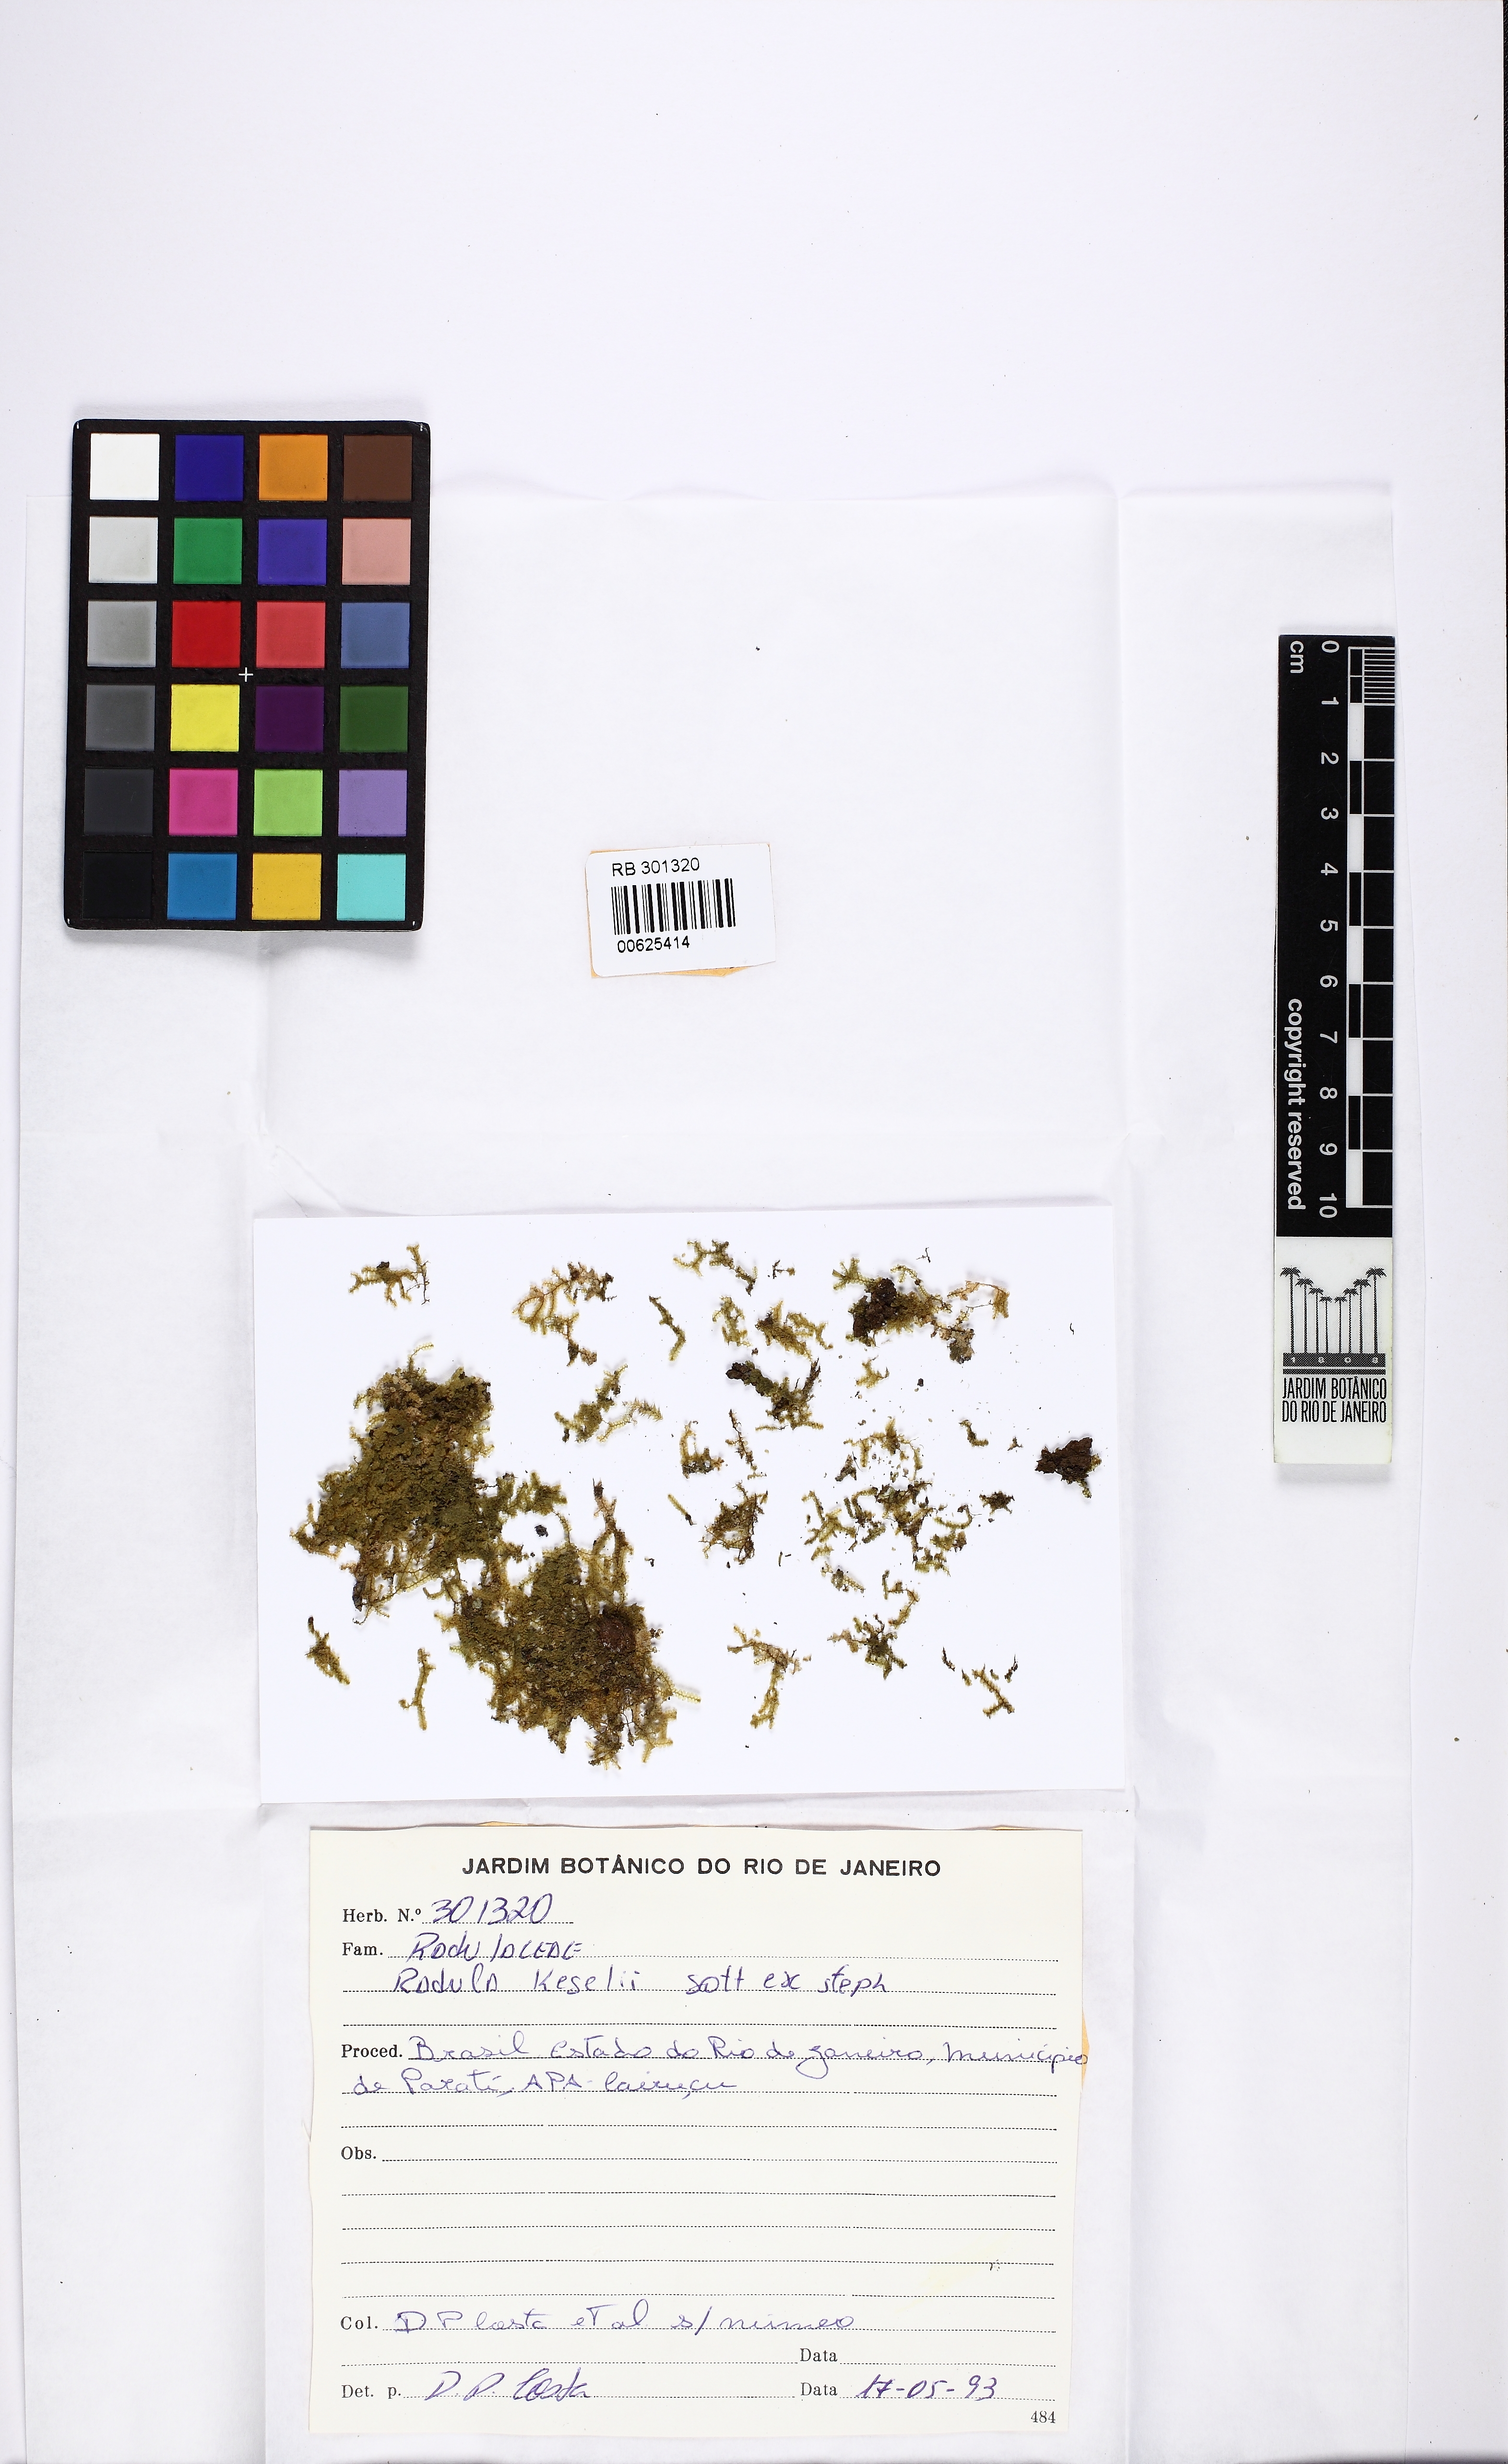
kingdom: Plantae
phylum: Marchantiophyta
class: Jungermanniopsida
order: Porellales
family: Radulaceae
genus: Radula
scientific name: Radula pallens
